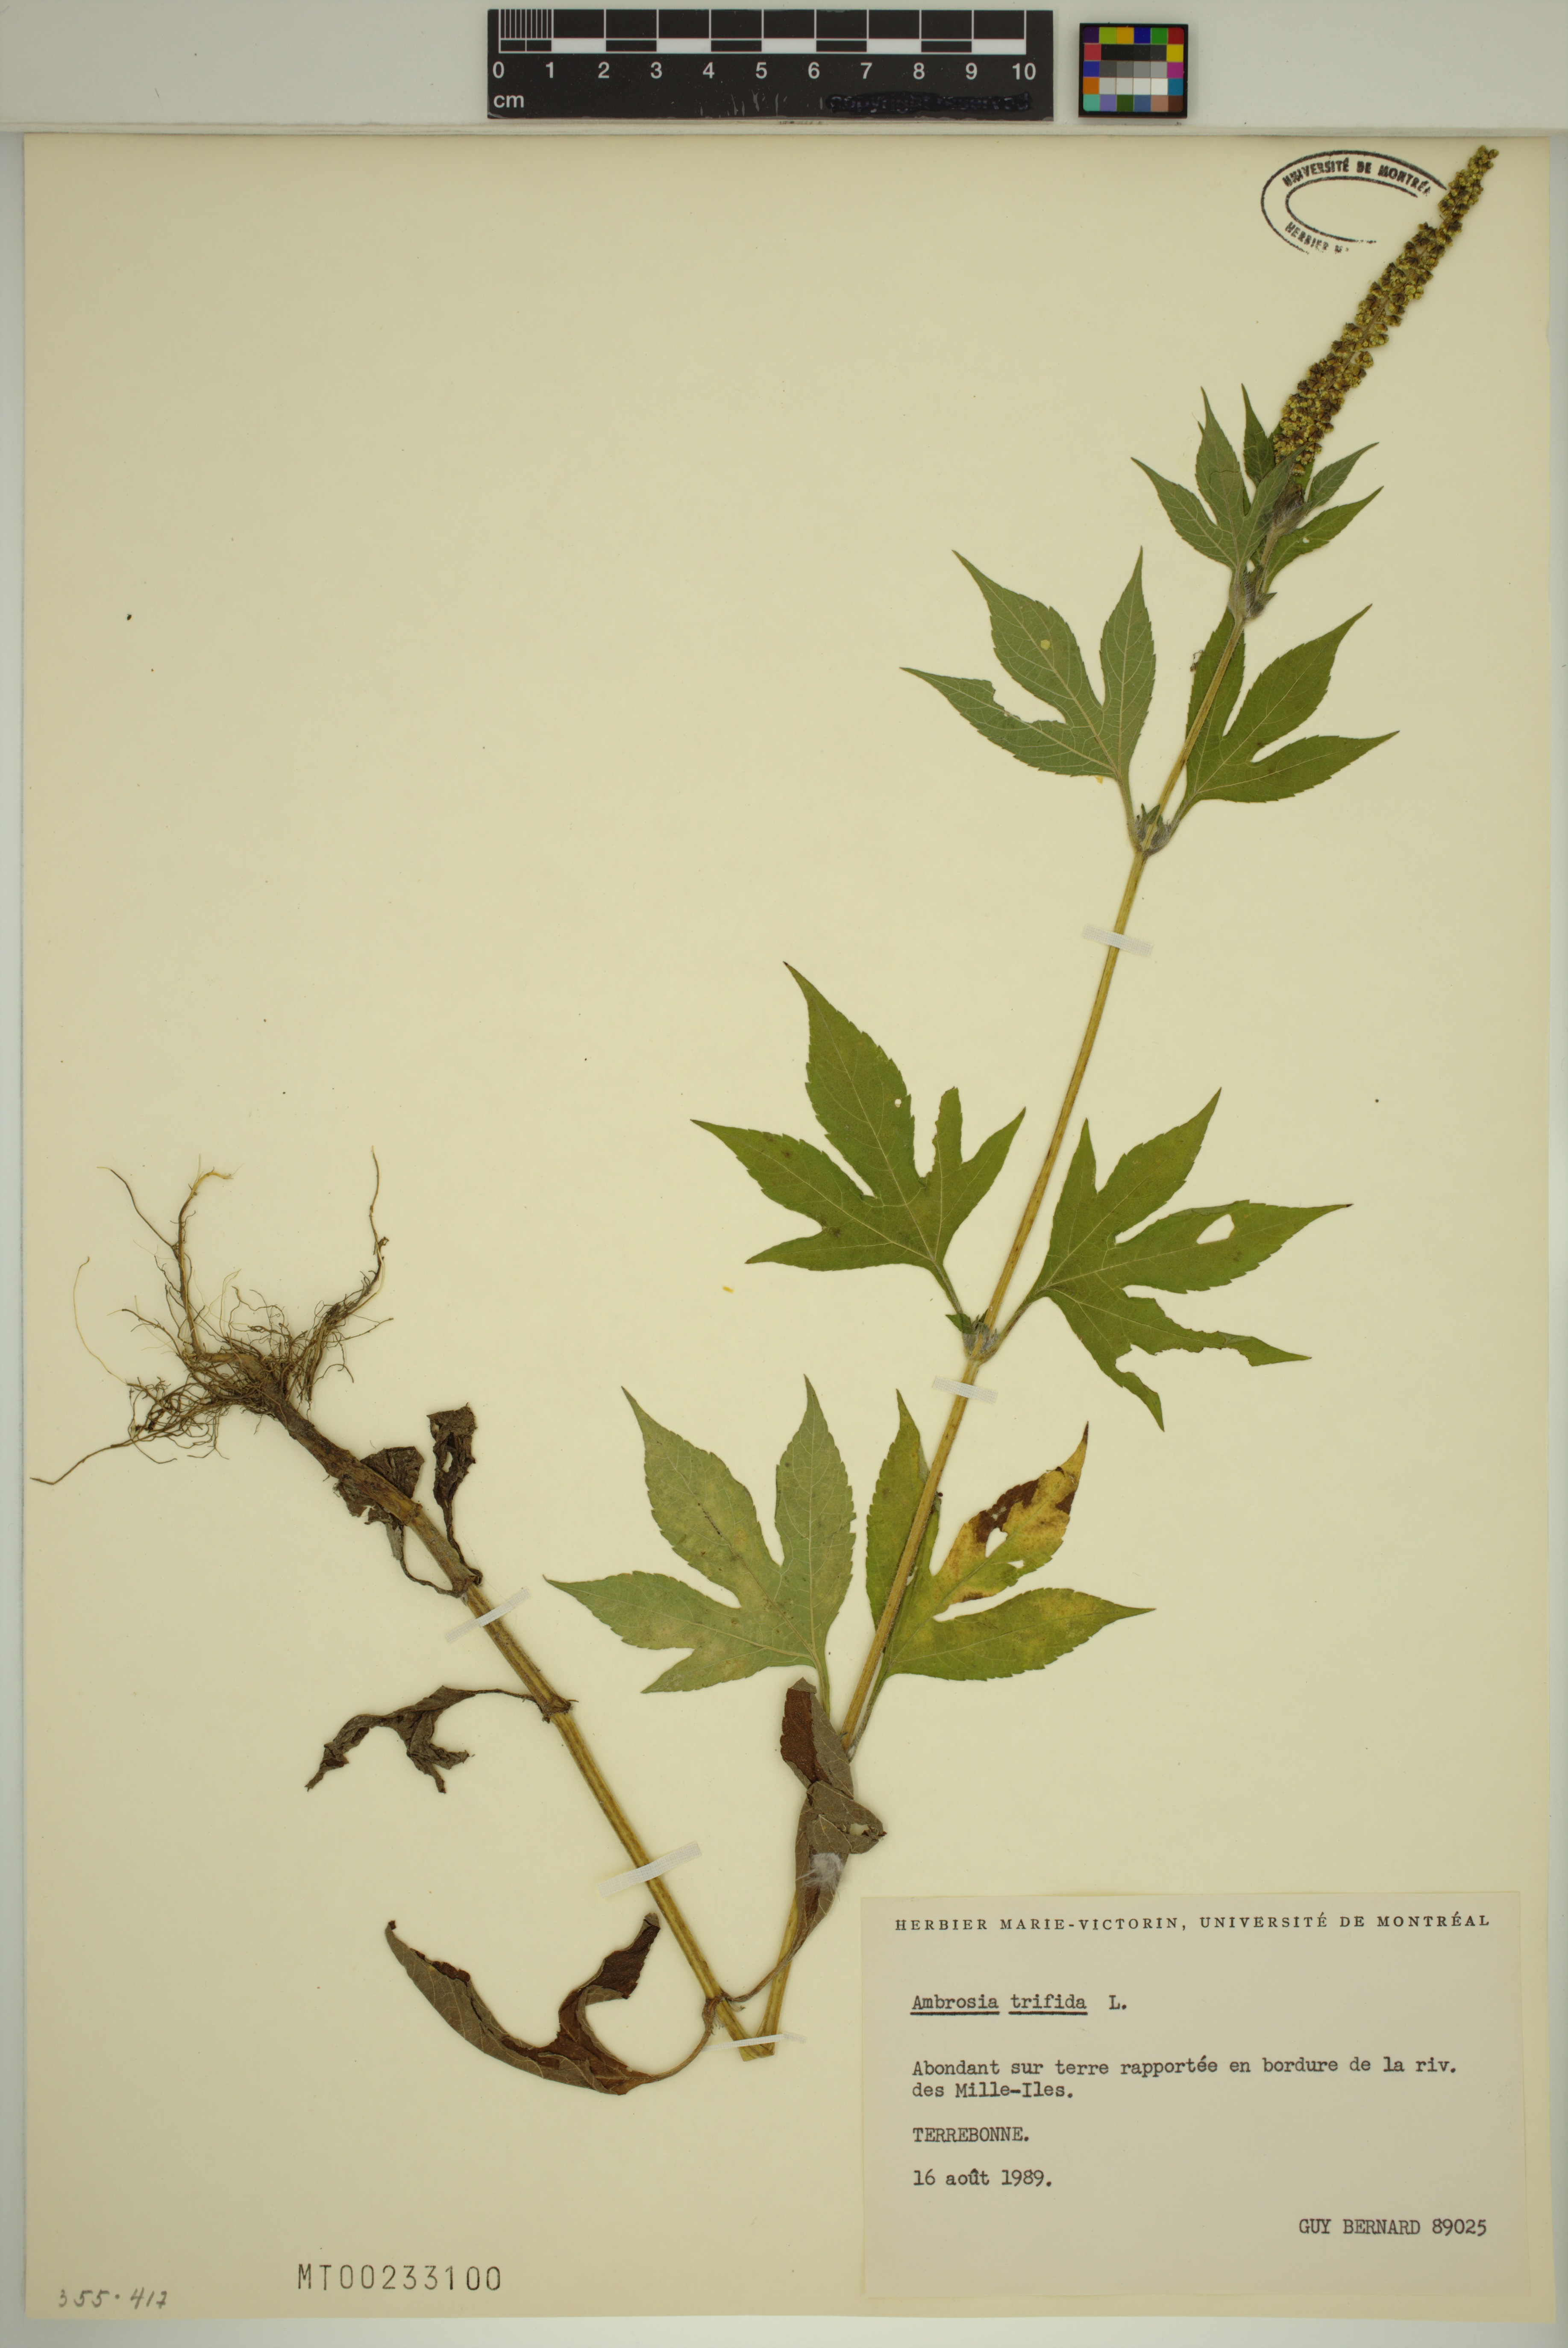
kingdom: Plantae
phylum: Tracheophyta
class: Magnoliopsida
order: Asterales
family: Asteraceae
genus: Ambrosia
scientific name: Ambrosia trifida
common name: Giant ragweed
